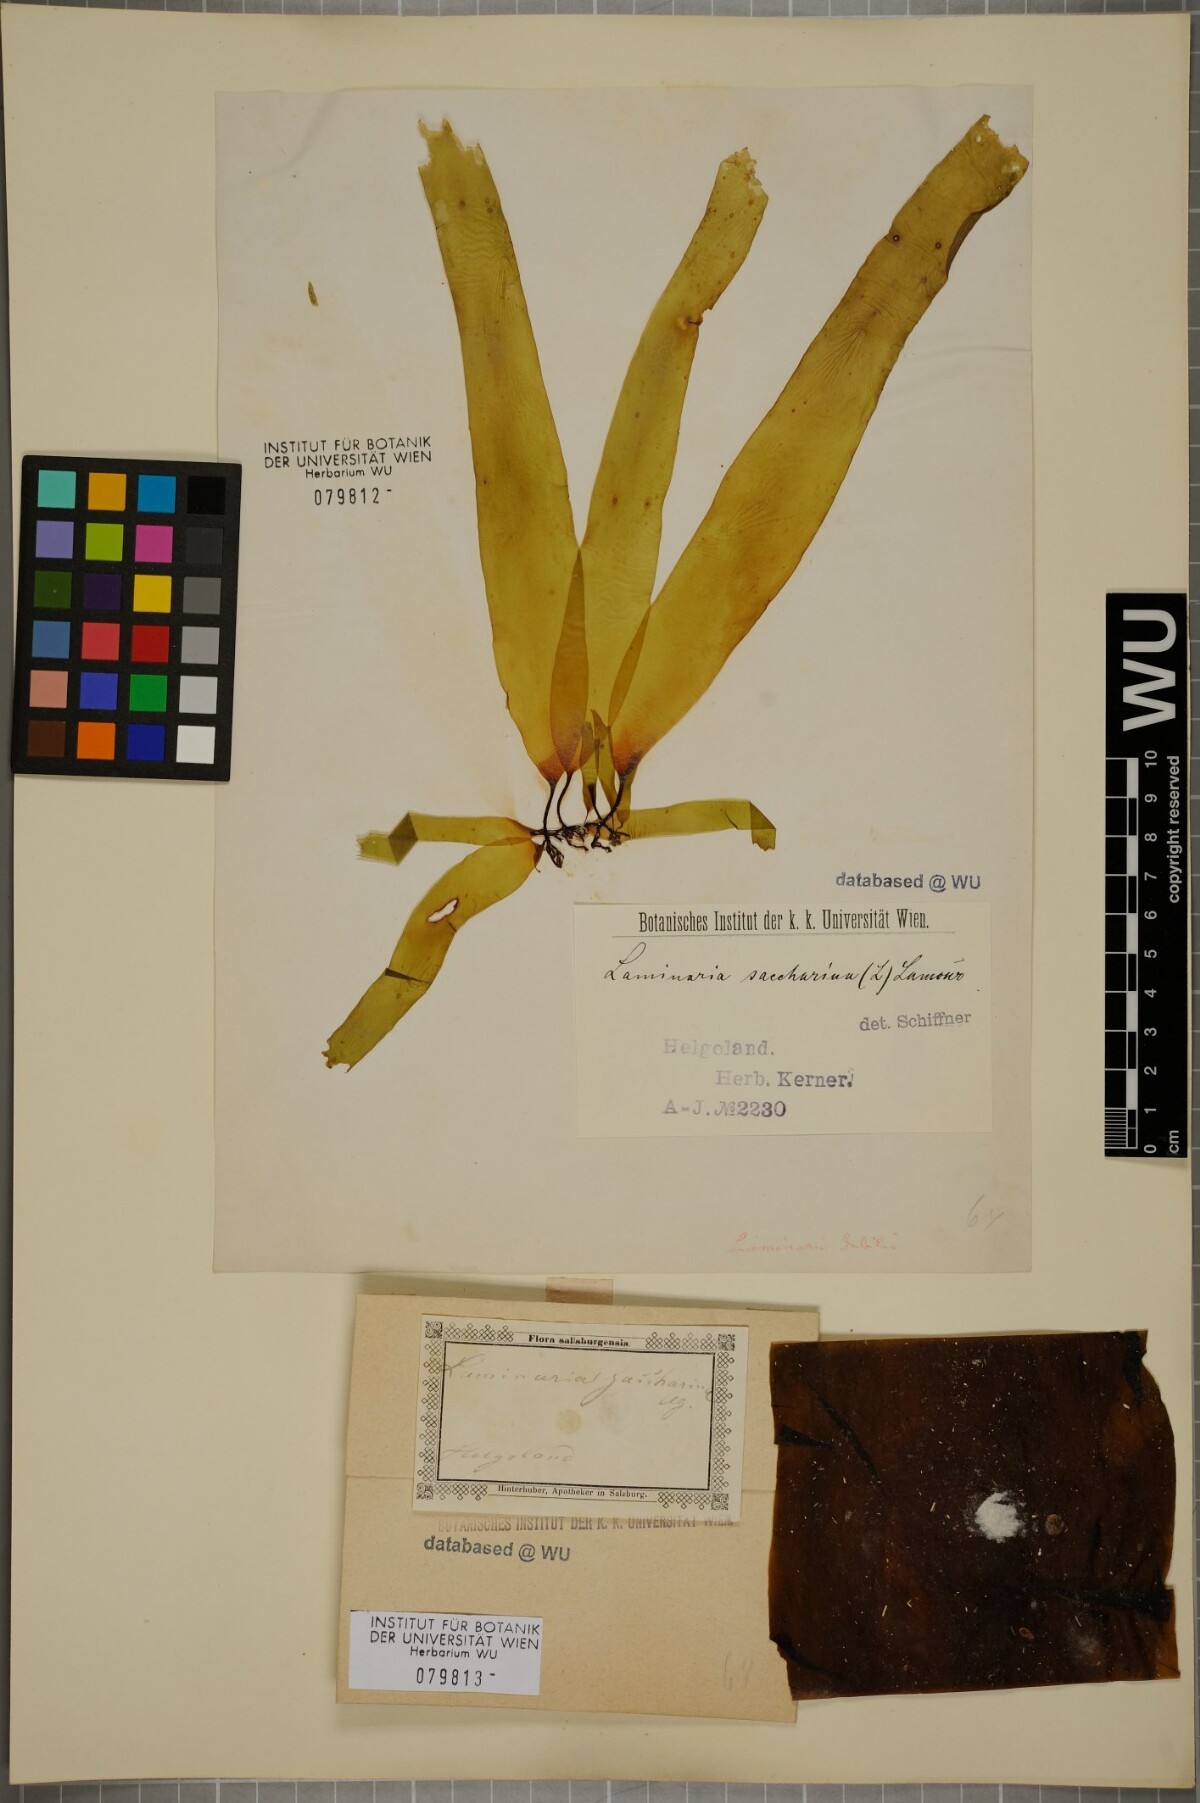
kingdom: Chromista
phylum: Ochrophyta
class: Phaeophyceae
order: Laminariales
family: Laminariaceae
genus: Saccharina
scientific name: Saccharina latissima
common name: Poor man's weather glass
